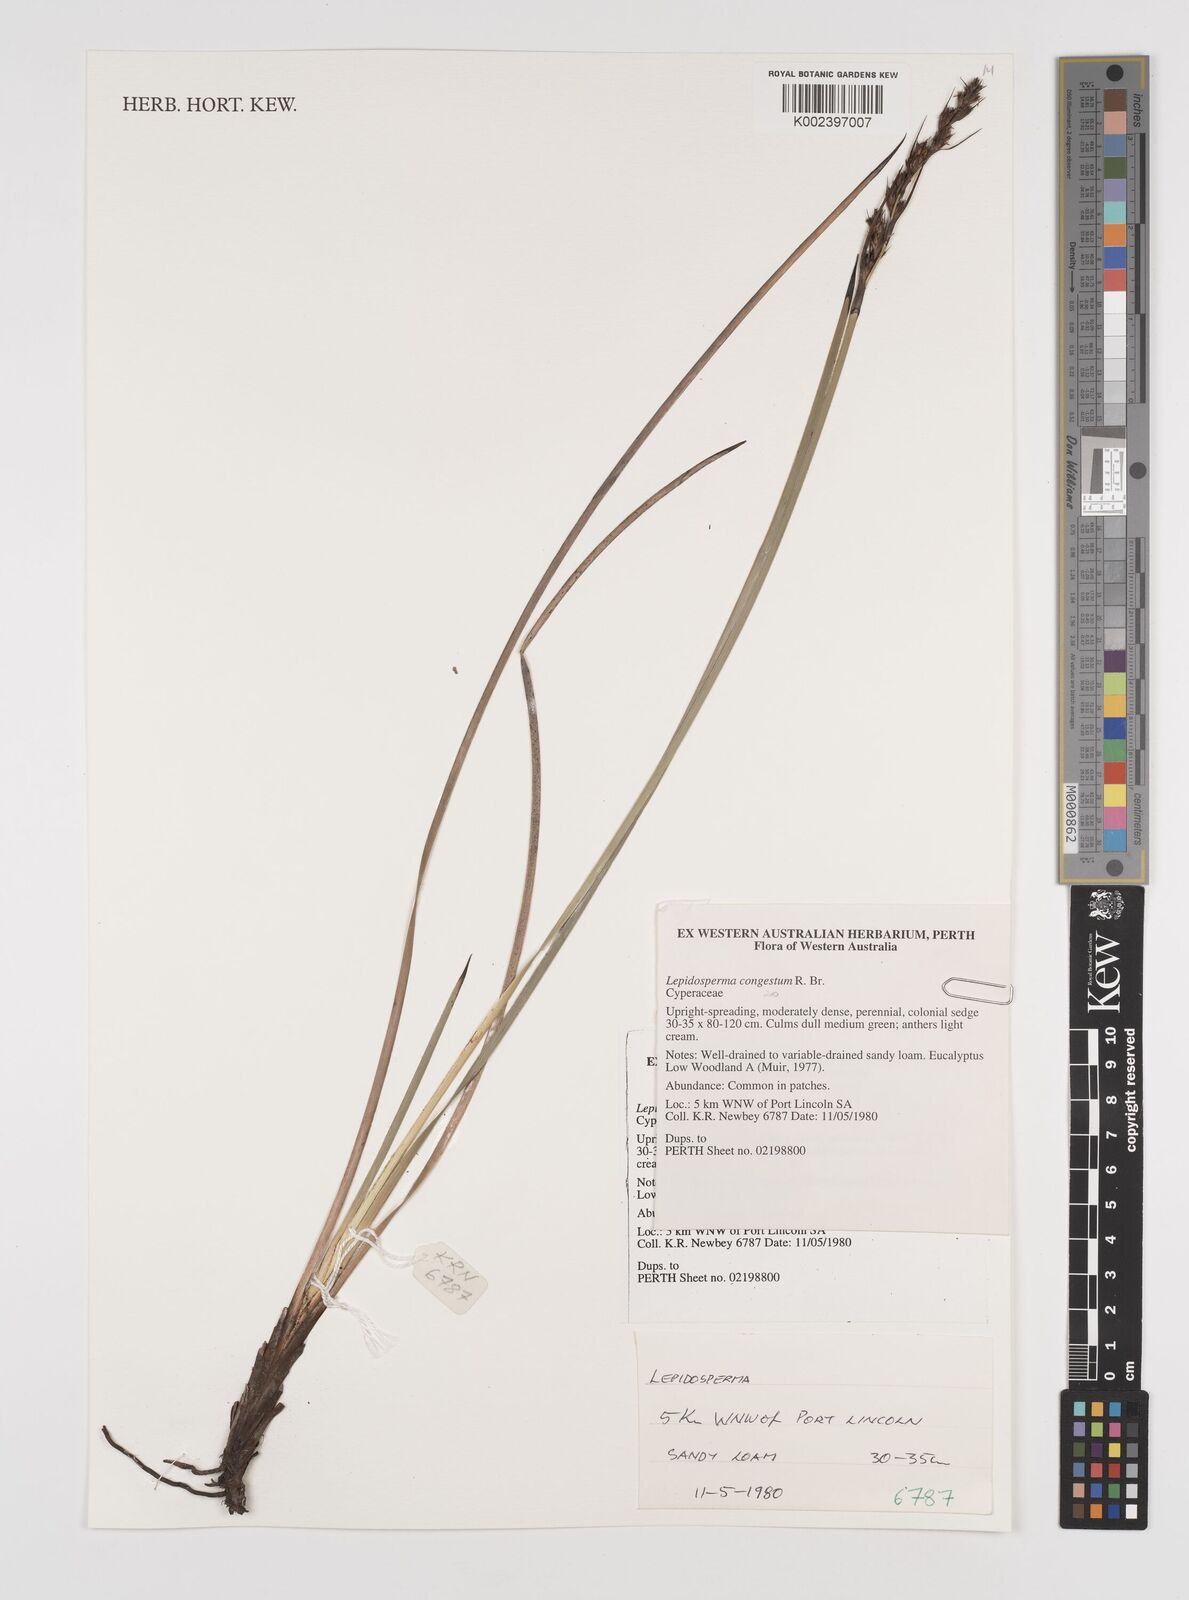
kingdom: Plantae
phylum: Tracheophyta
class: Liliopsida
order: Poales
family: Cyperaceae
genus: Lepidosperma
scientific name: Lepidosperma congestum
